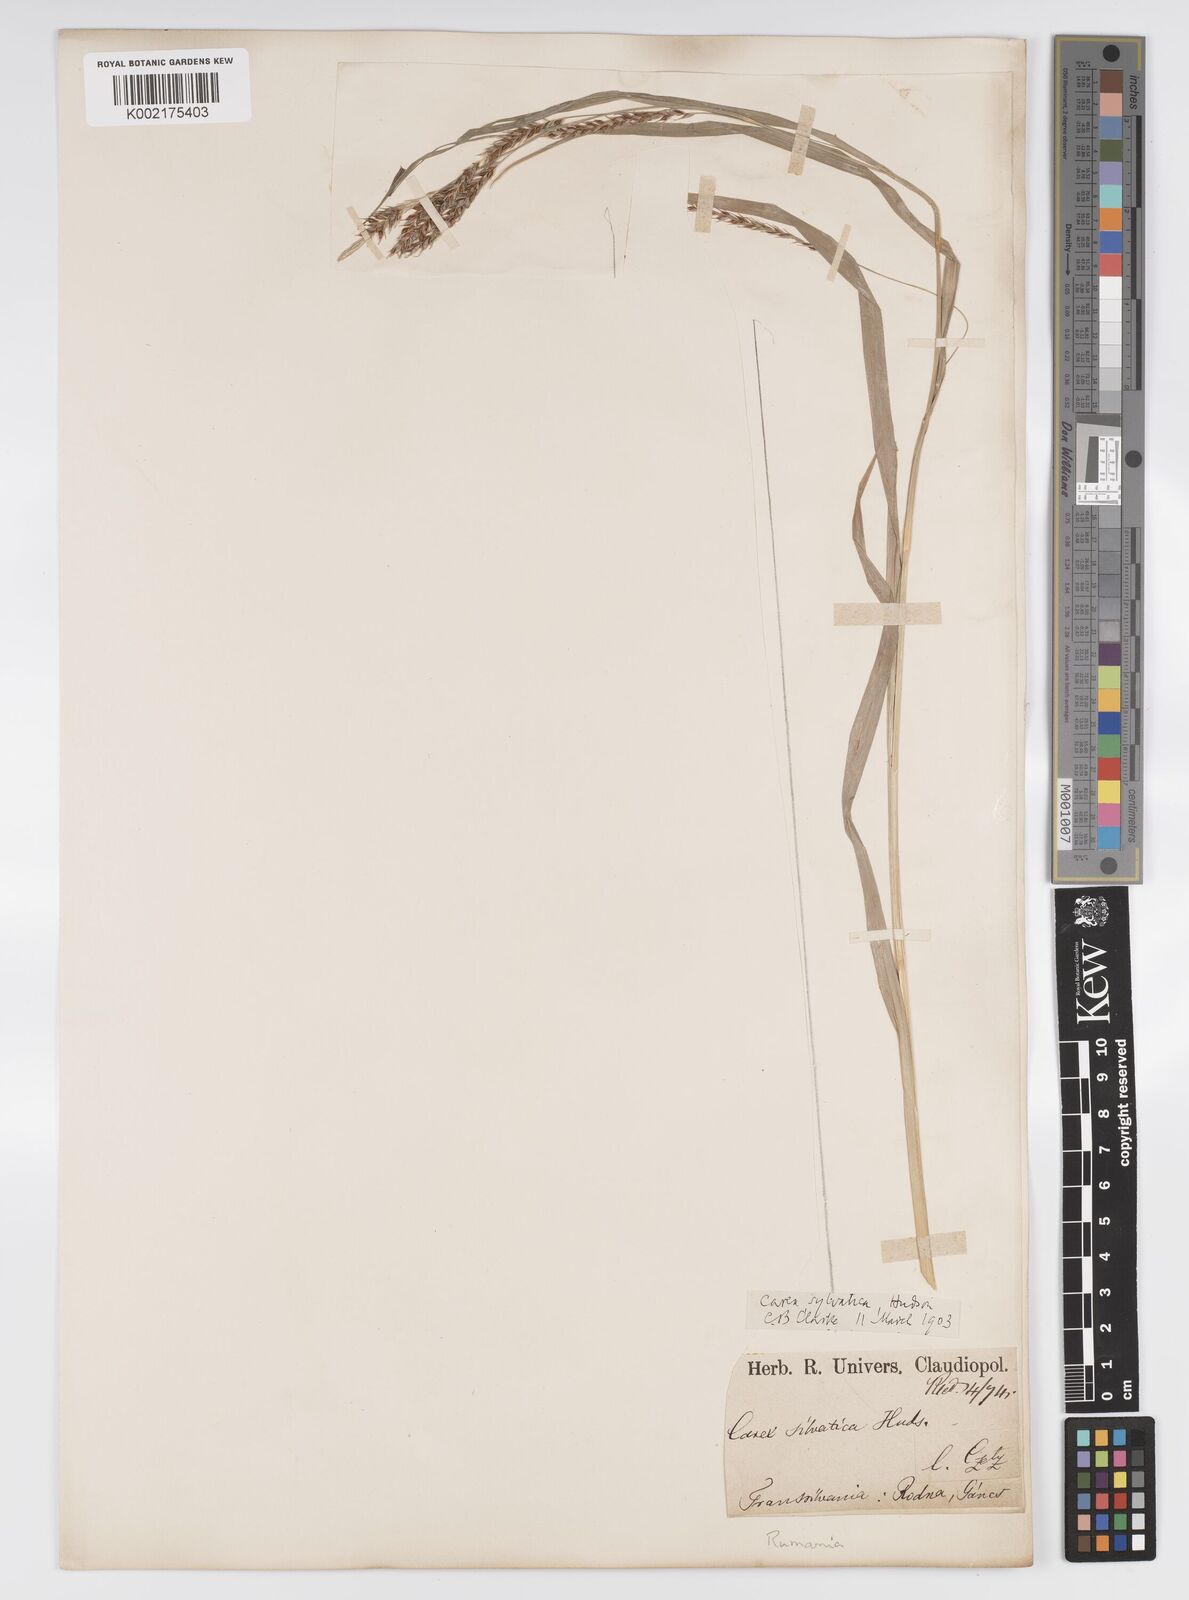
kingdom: Plantae
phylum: Tracheophyta
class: Liliopsida
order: Poales
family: Cyperaceae
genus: Carex
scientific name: Carex sylvatica
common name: Wood-sedge
